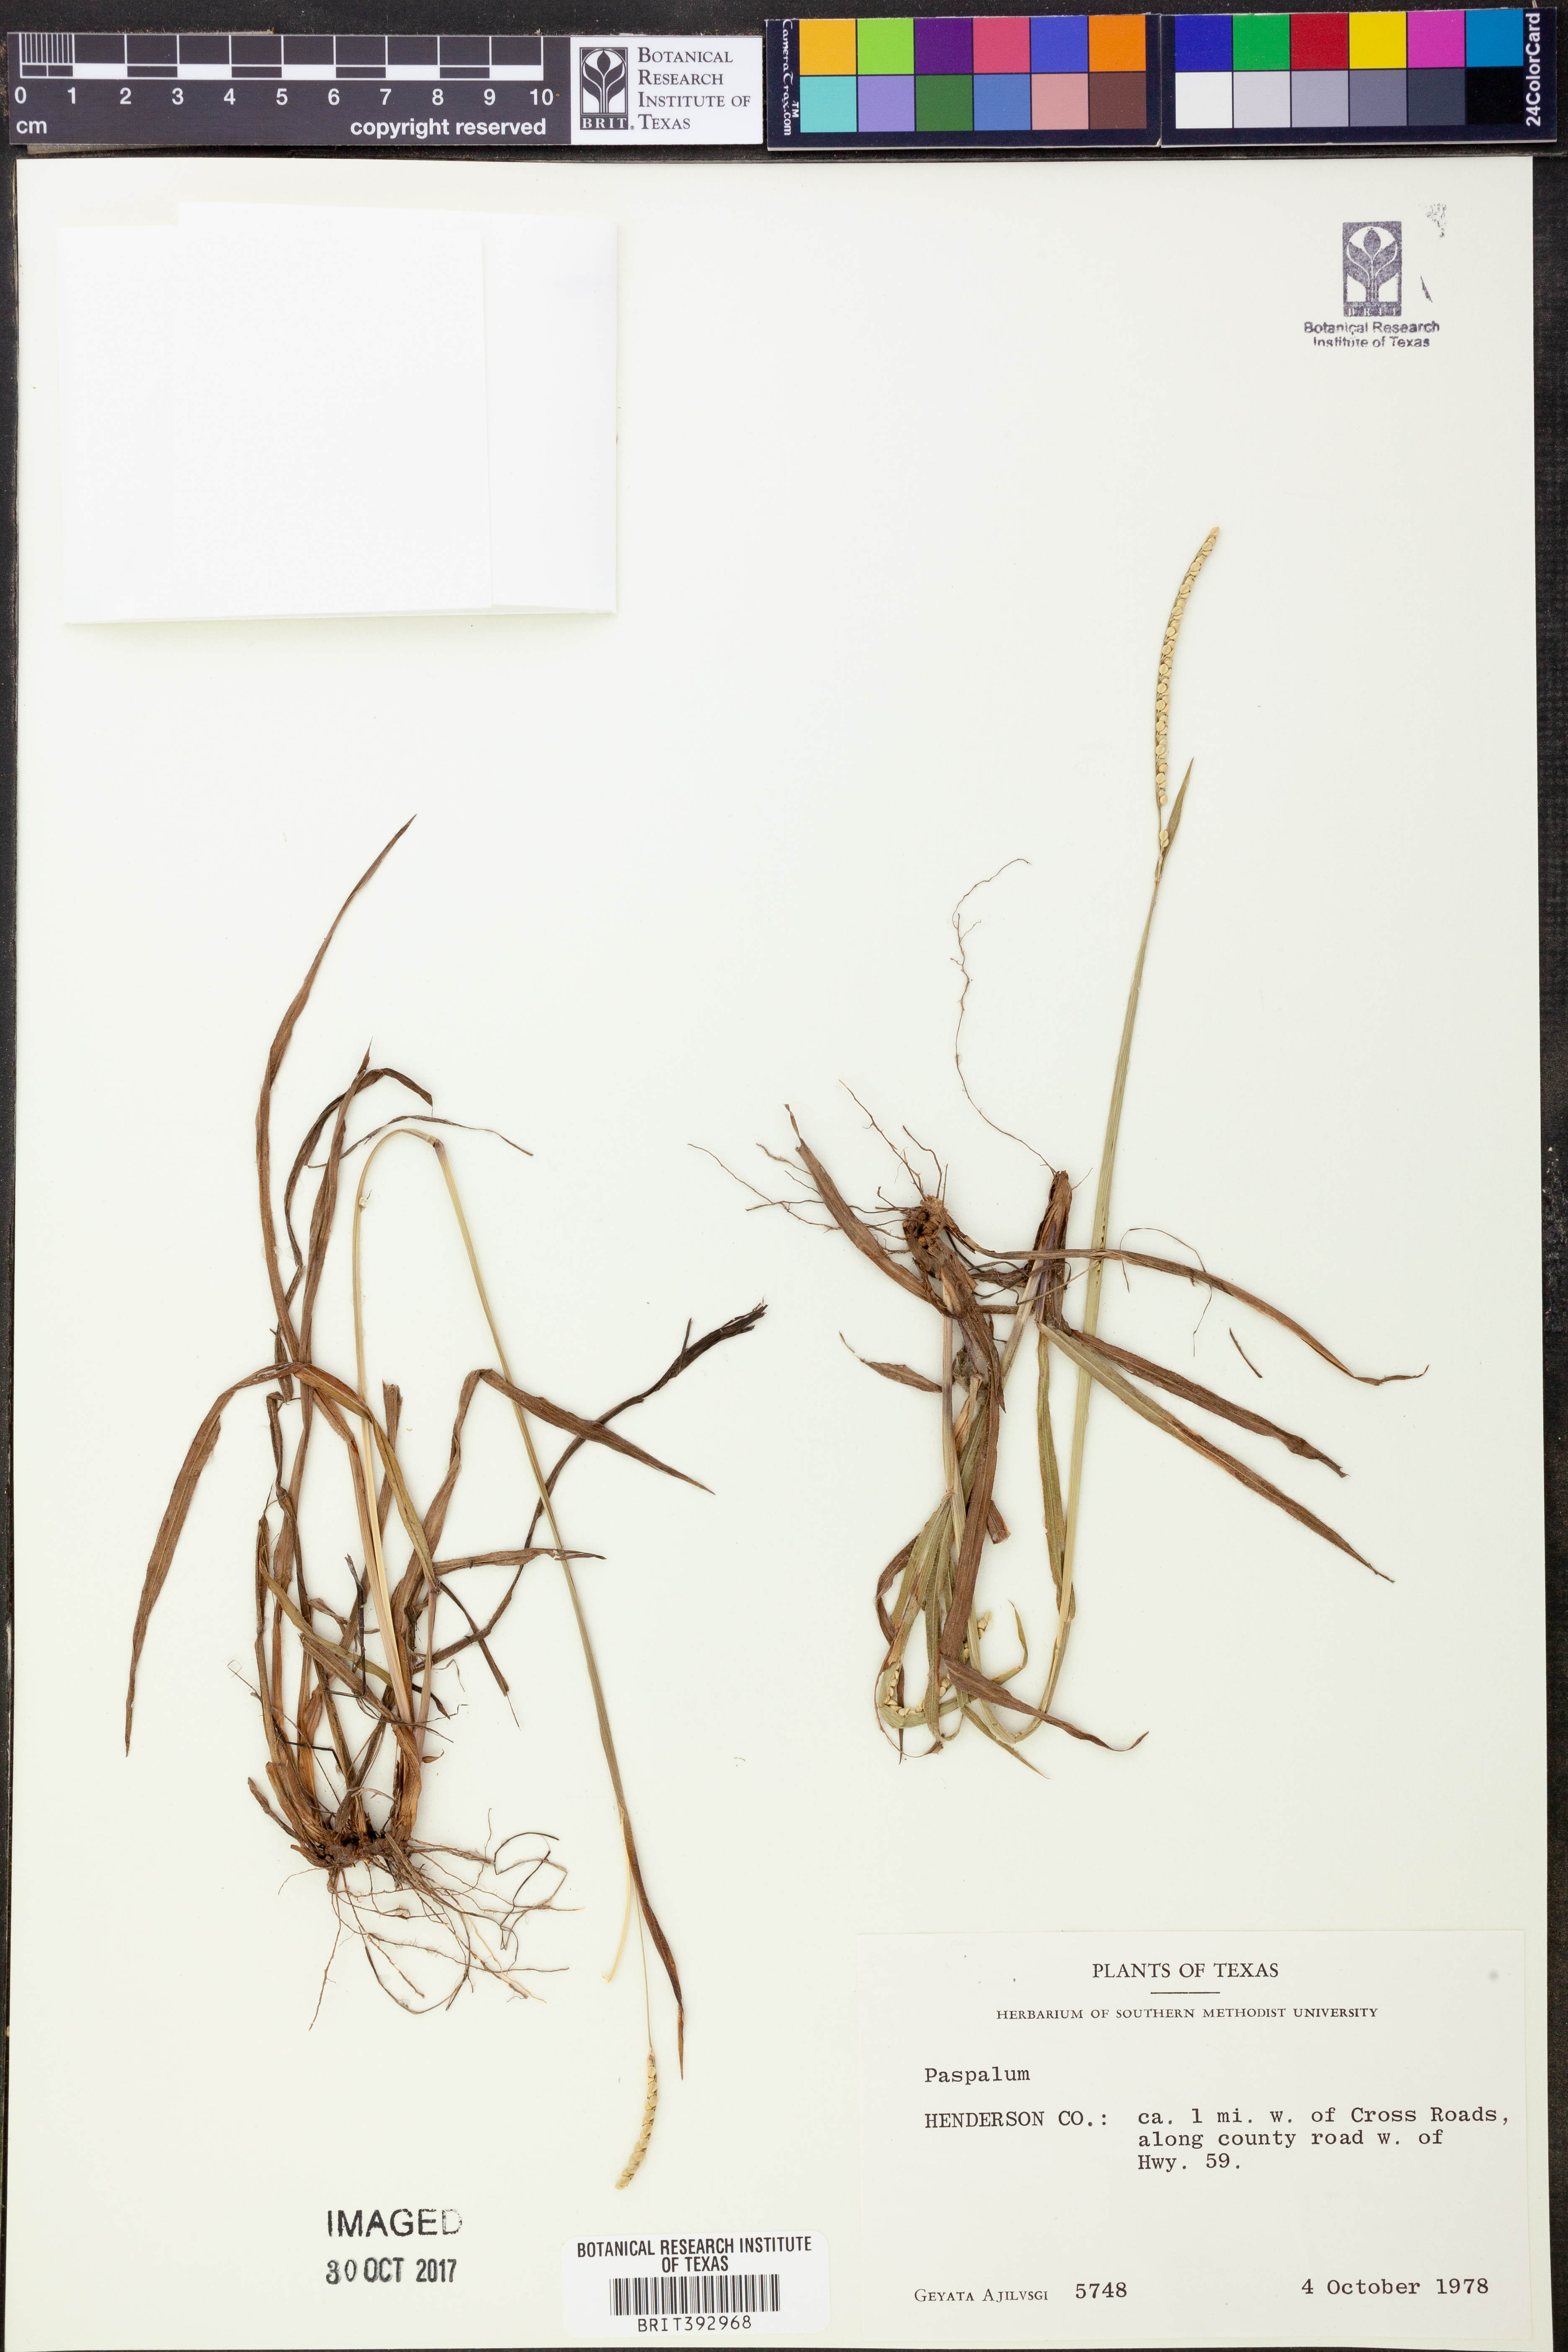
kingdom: Plantae
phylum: Tracheophyta
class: Liliopsida
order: Poales
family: Poaceae
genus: Paspalum
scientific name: Paspalum
